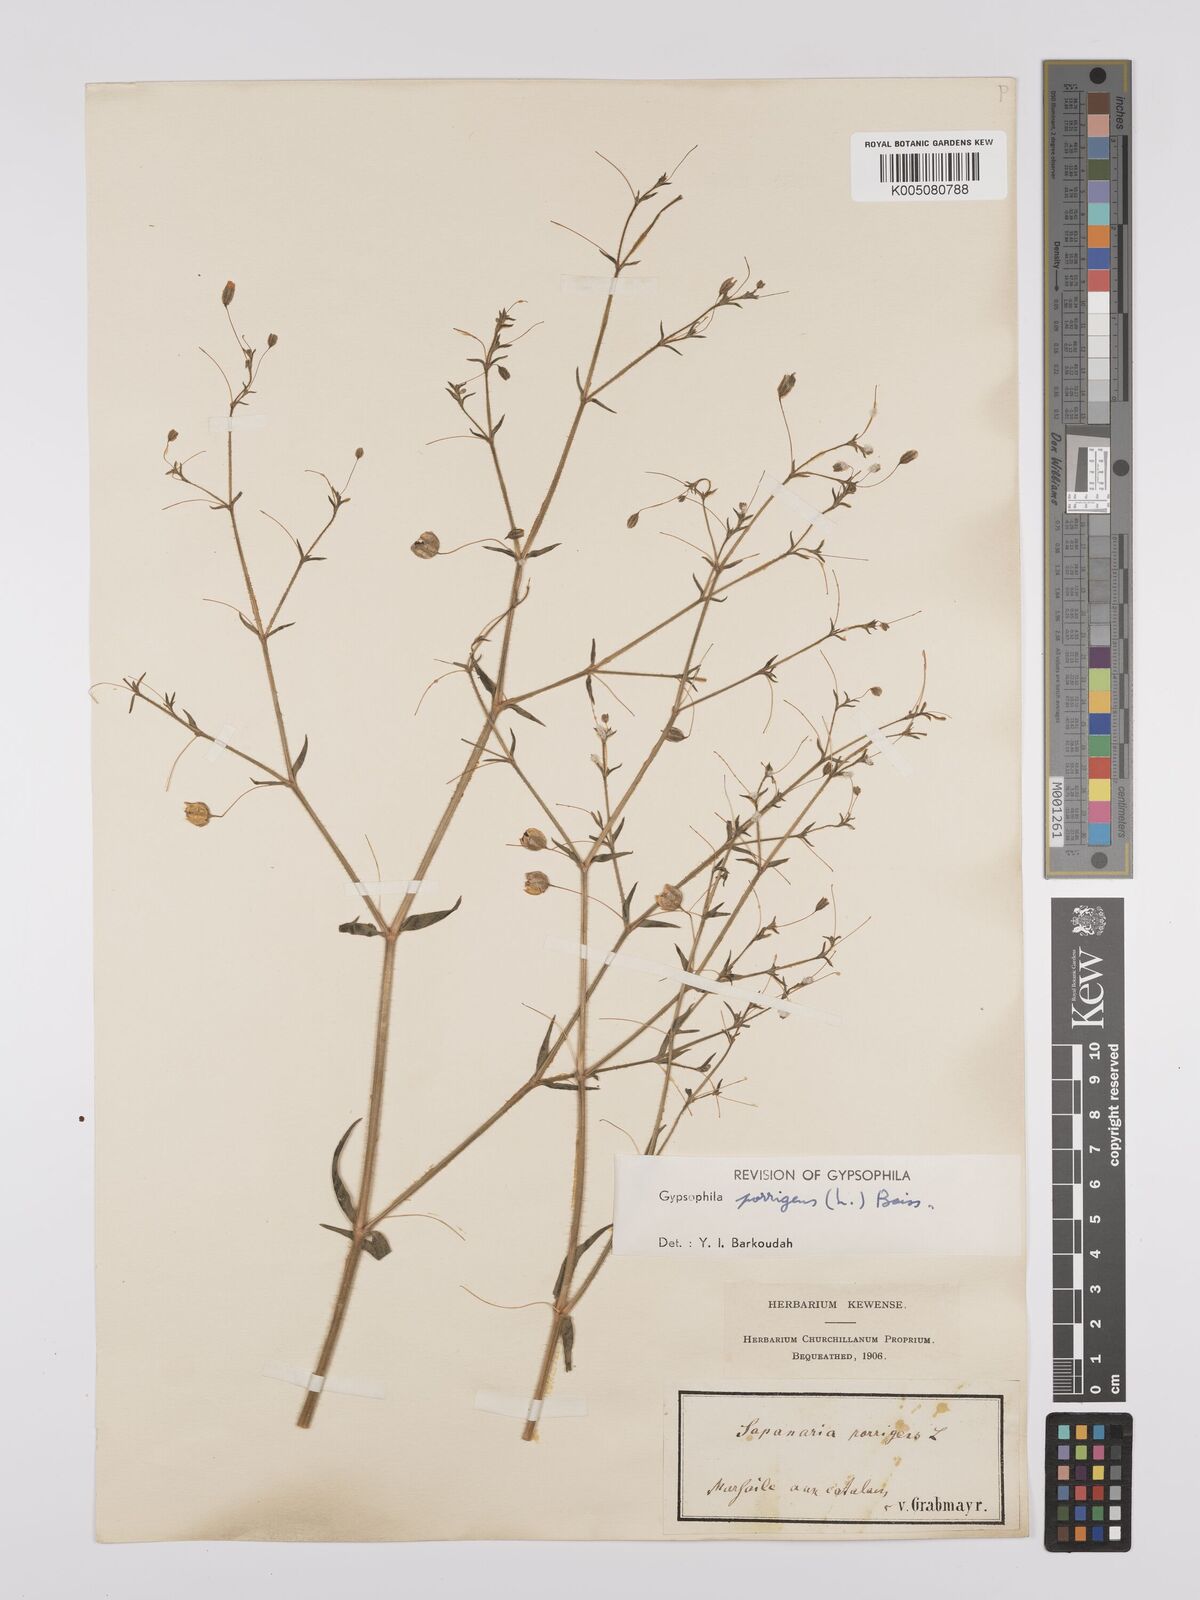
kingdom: Plantae
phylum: Tracheophyta
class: Magnoliopsida
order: Caryophyllales
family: Caryophyllaceae
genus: Gypsophila
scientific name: Gypsophila pilosa
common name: Turkish baby's-breath
